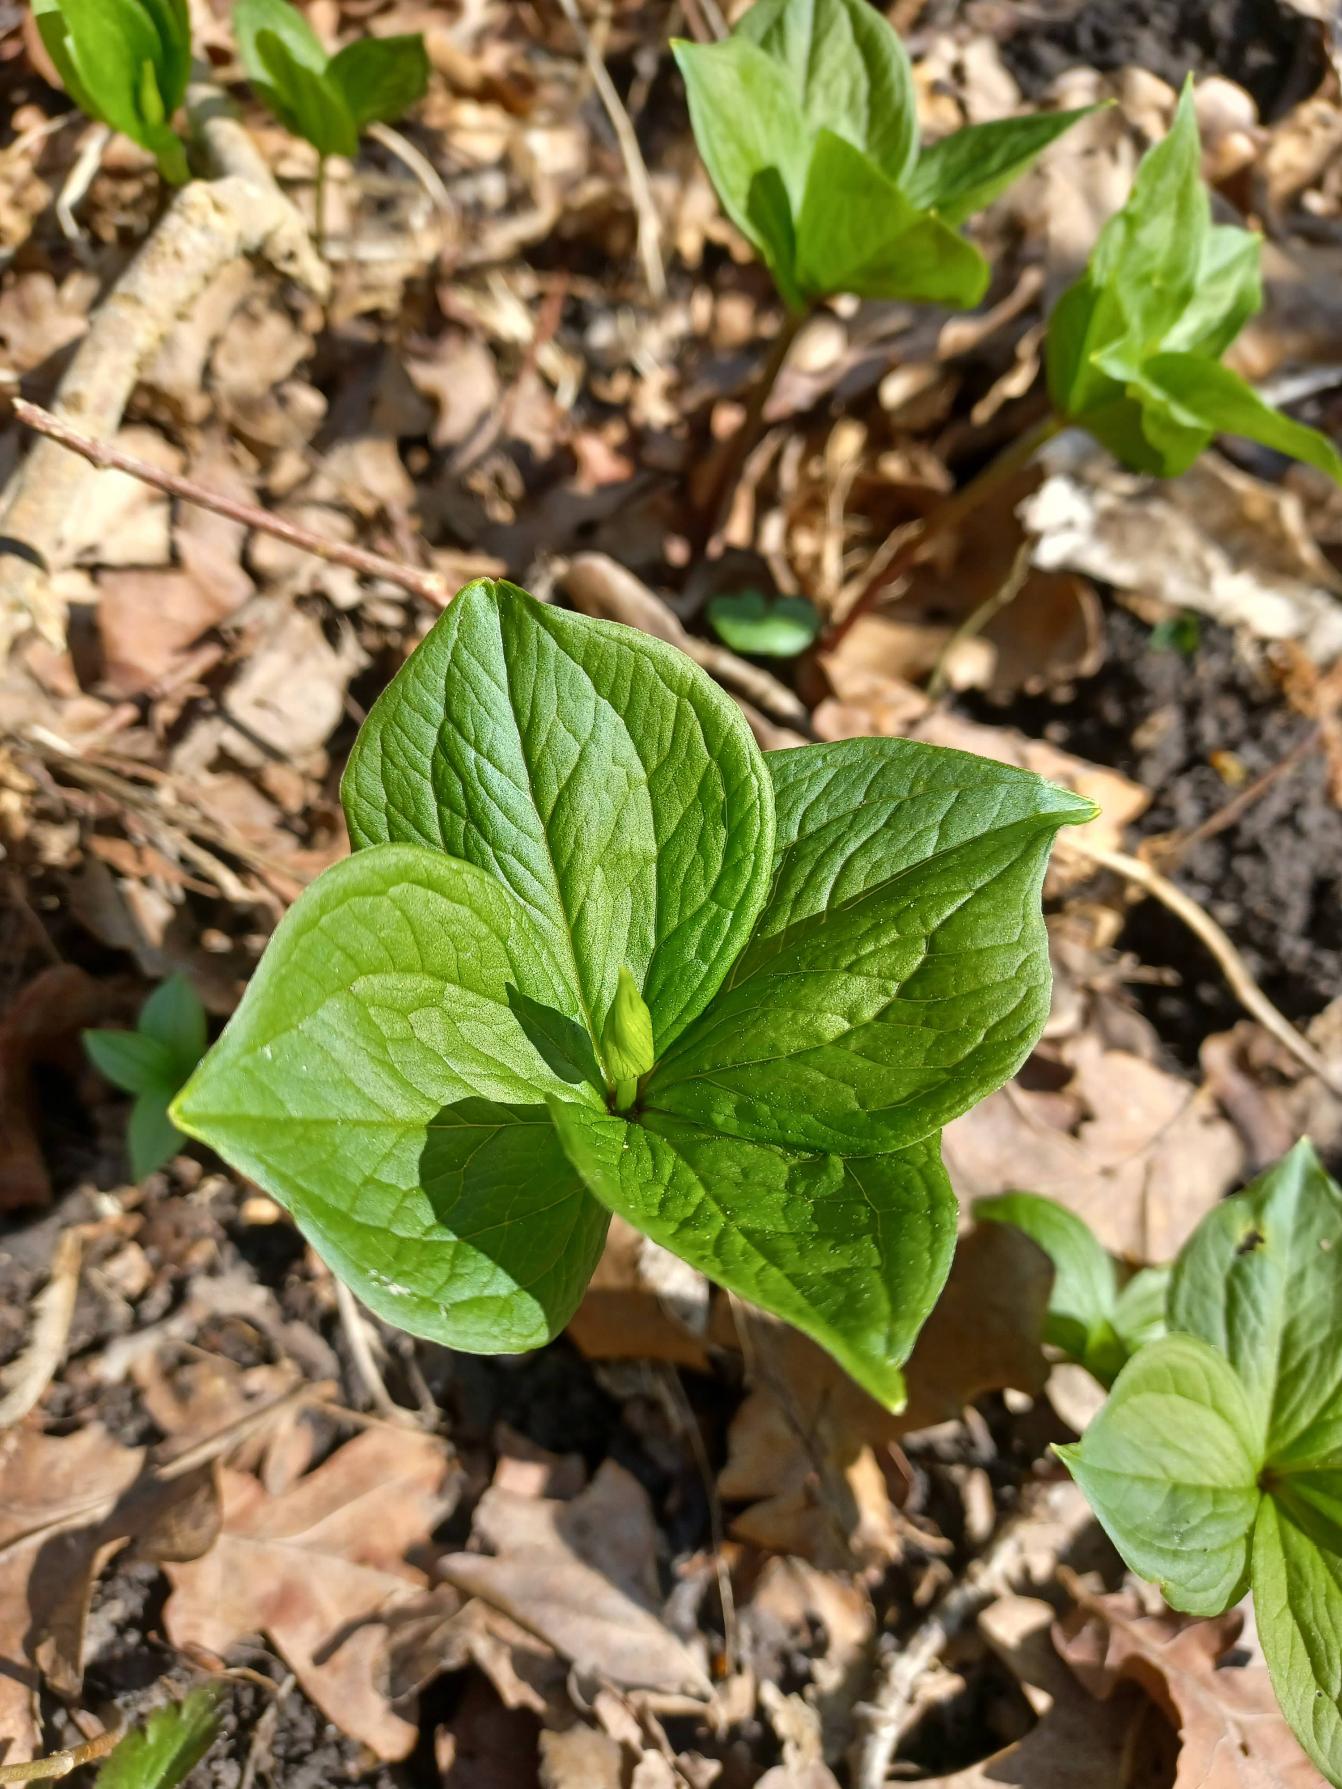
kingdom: Plantae
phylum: Tracheophyta
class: Liliopsida
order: Liliales
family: Melanthiaceae
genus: Paris
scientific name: Paris quadrifolia
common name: Firblad
